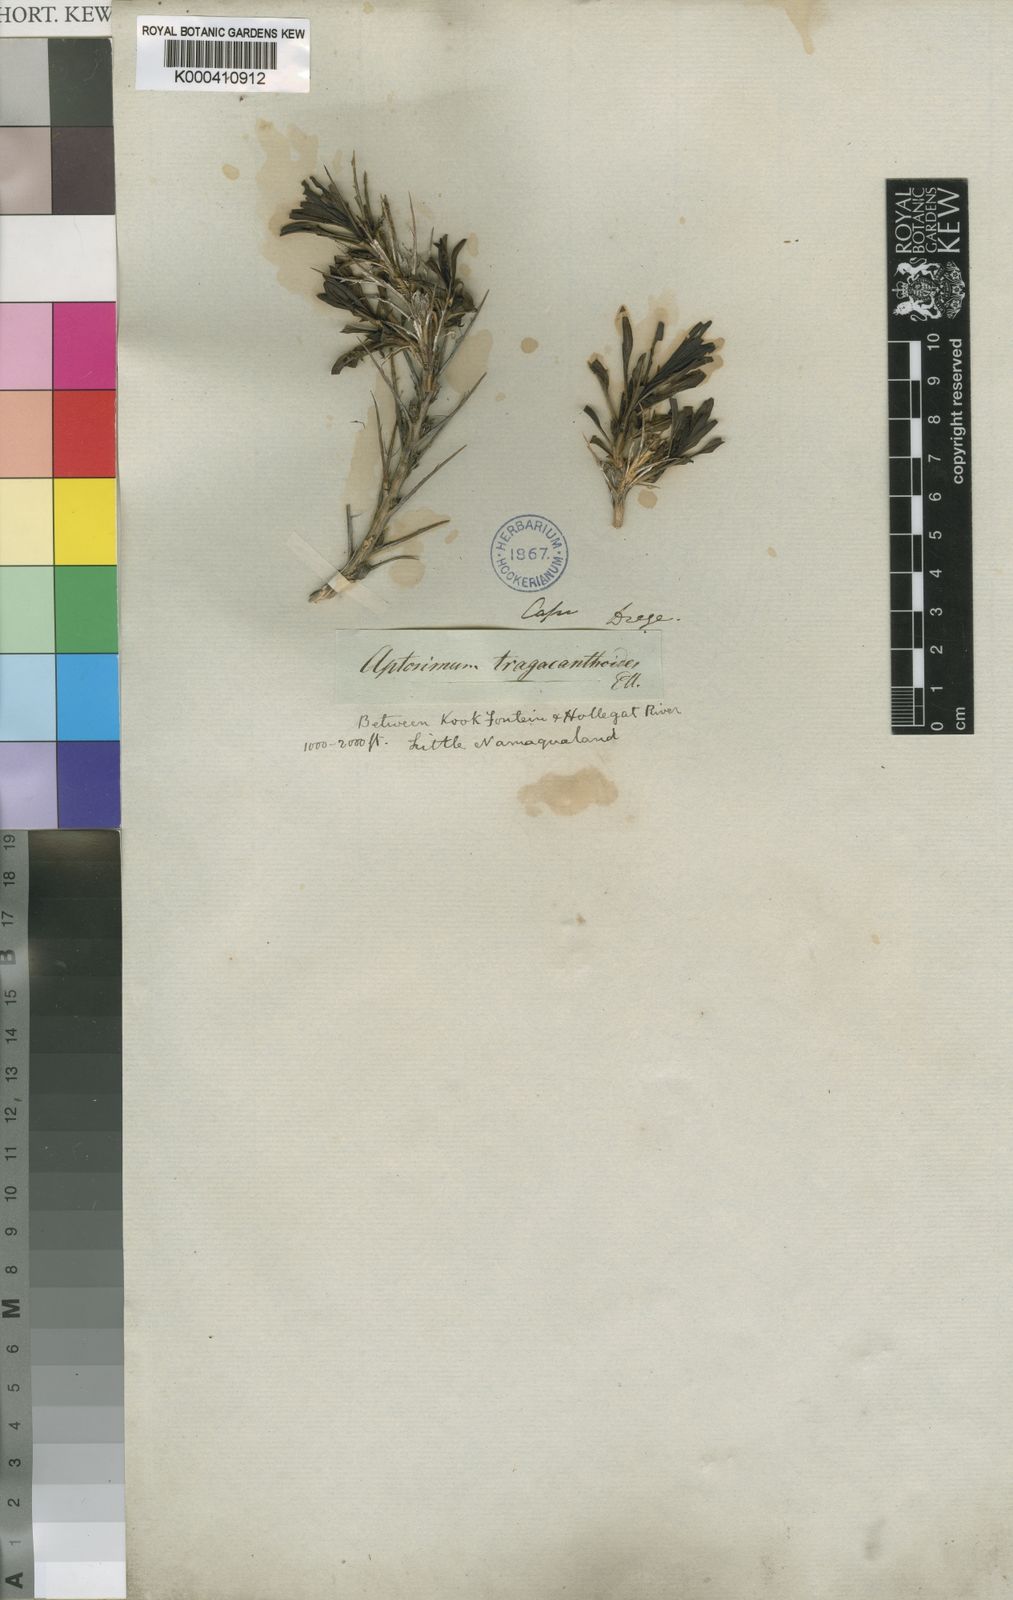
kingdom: Plantae
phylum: Tracheophyta
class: Magnoliopsida
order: Lamiales
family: Scrophulariaceae
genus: Aptosimum
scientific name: Aptosimum tragacanthoides
